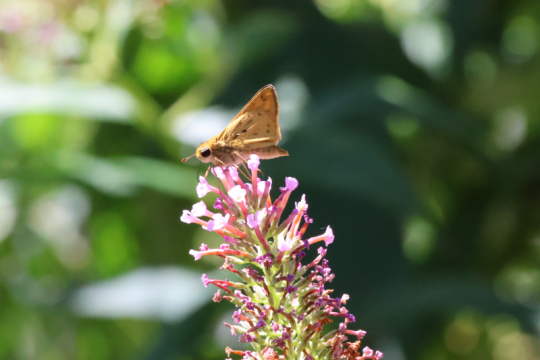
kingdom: Animalia
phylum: Arthropoda
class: Insecta
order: Lepidoptera
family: Hesperiidae
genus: Hylephila
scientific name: Hylephila phyleus
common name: Fiery Skipper
